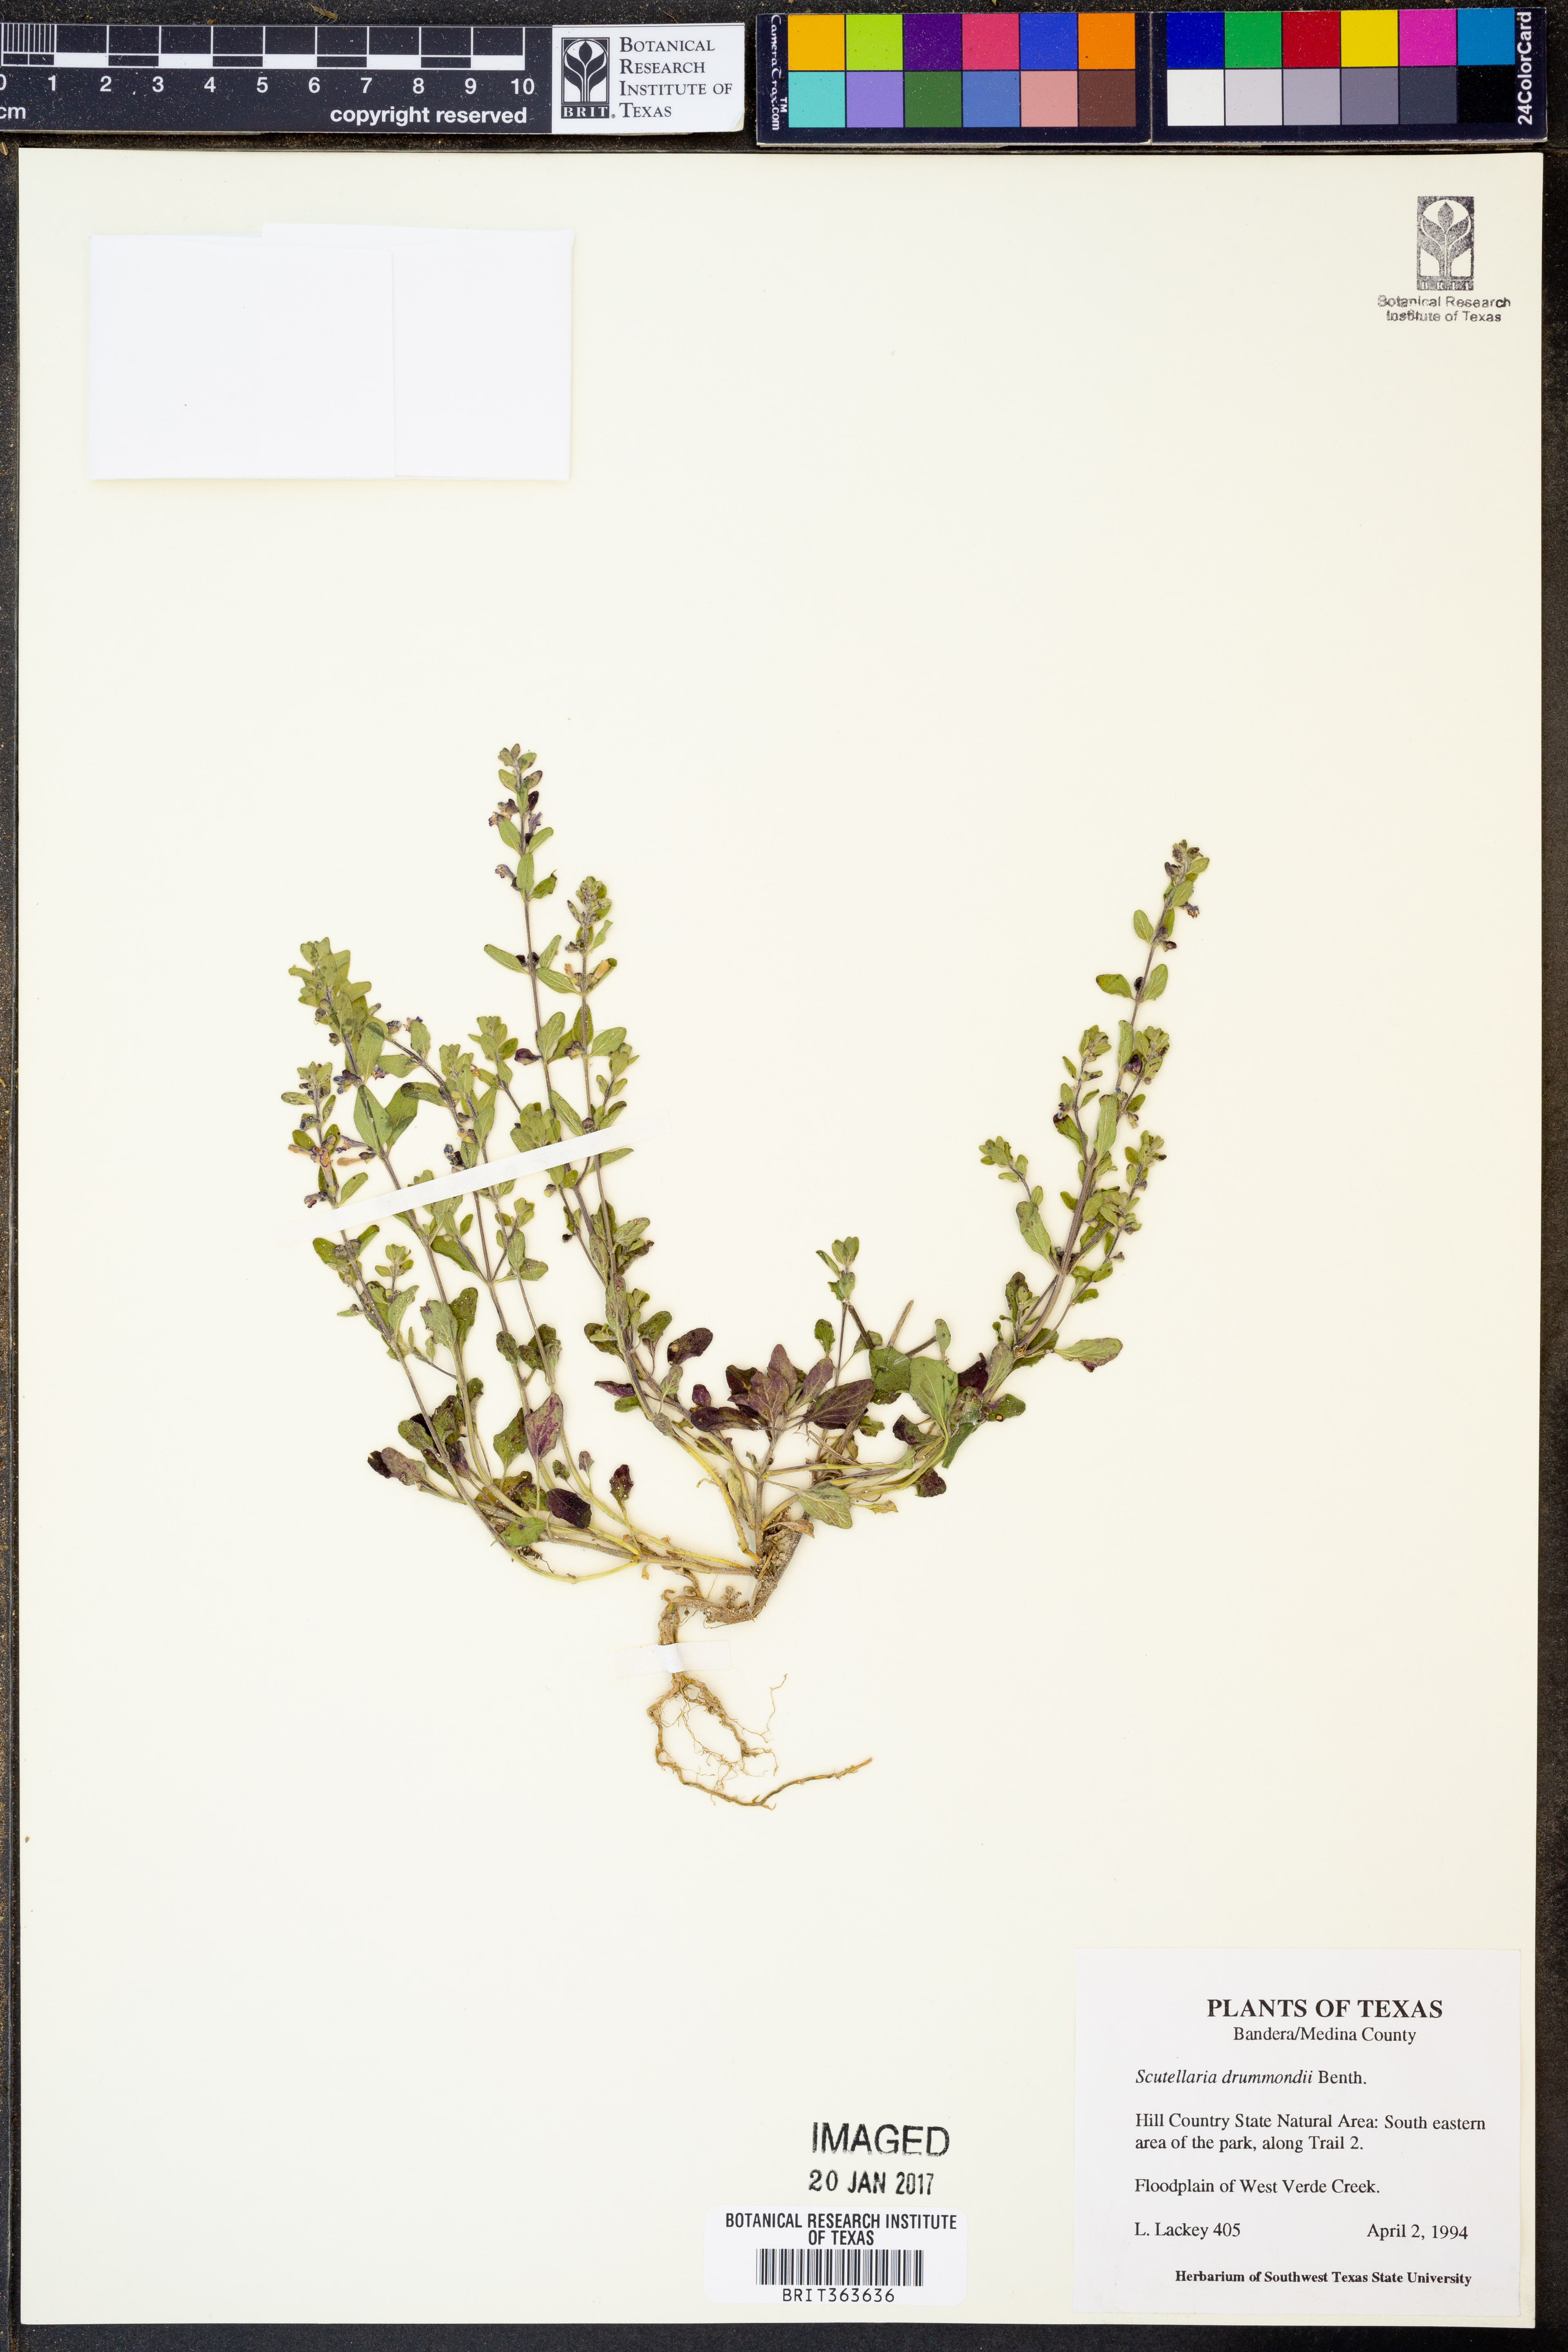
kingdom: Plantae
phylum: Tracheophyta
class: Magnoliopsida
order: Lamiales
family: Lamiaceae
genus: Scutellaria
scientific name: Scutellaria drummondii
